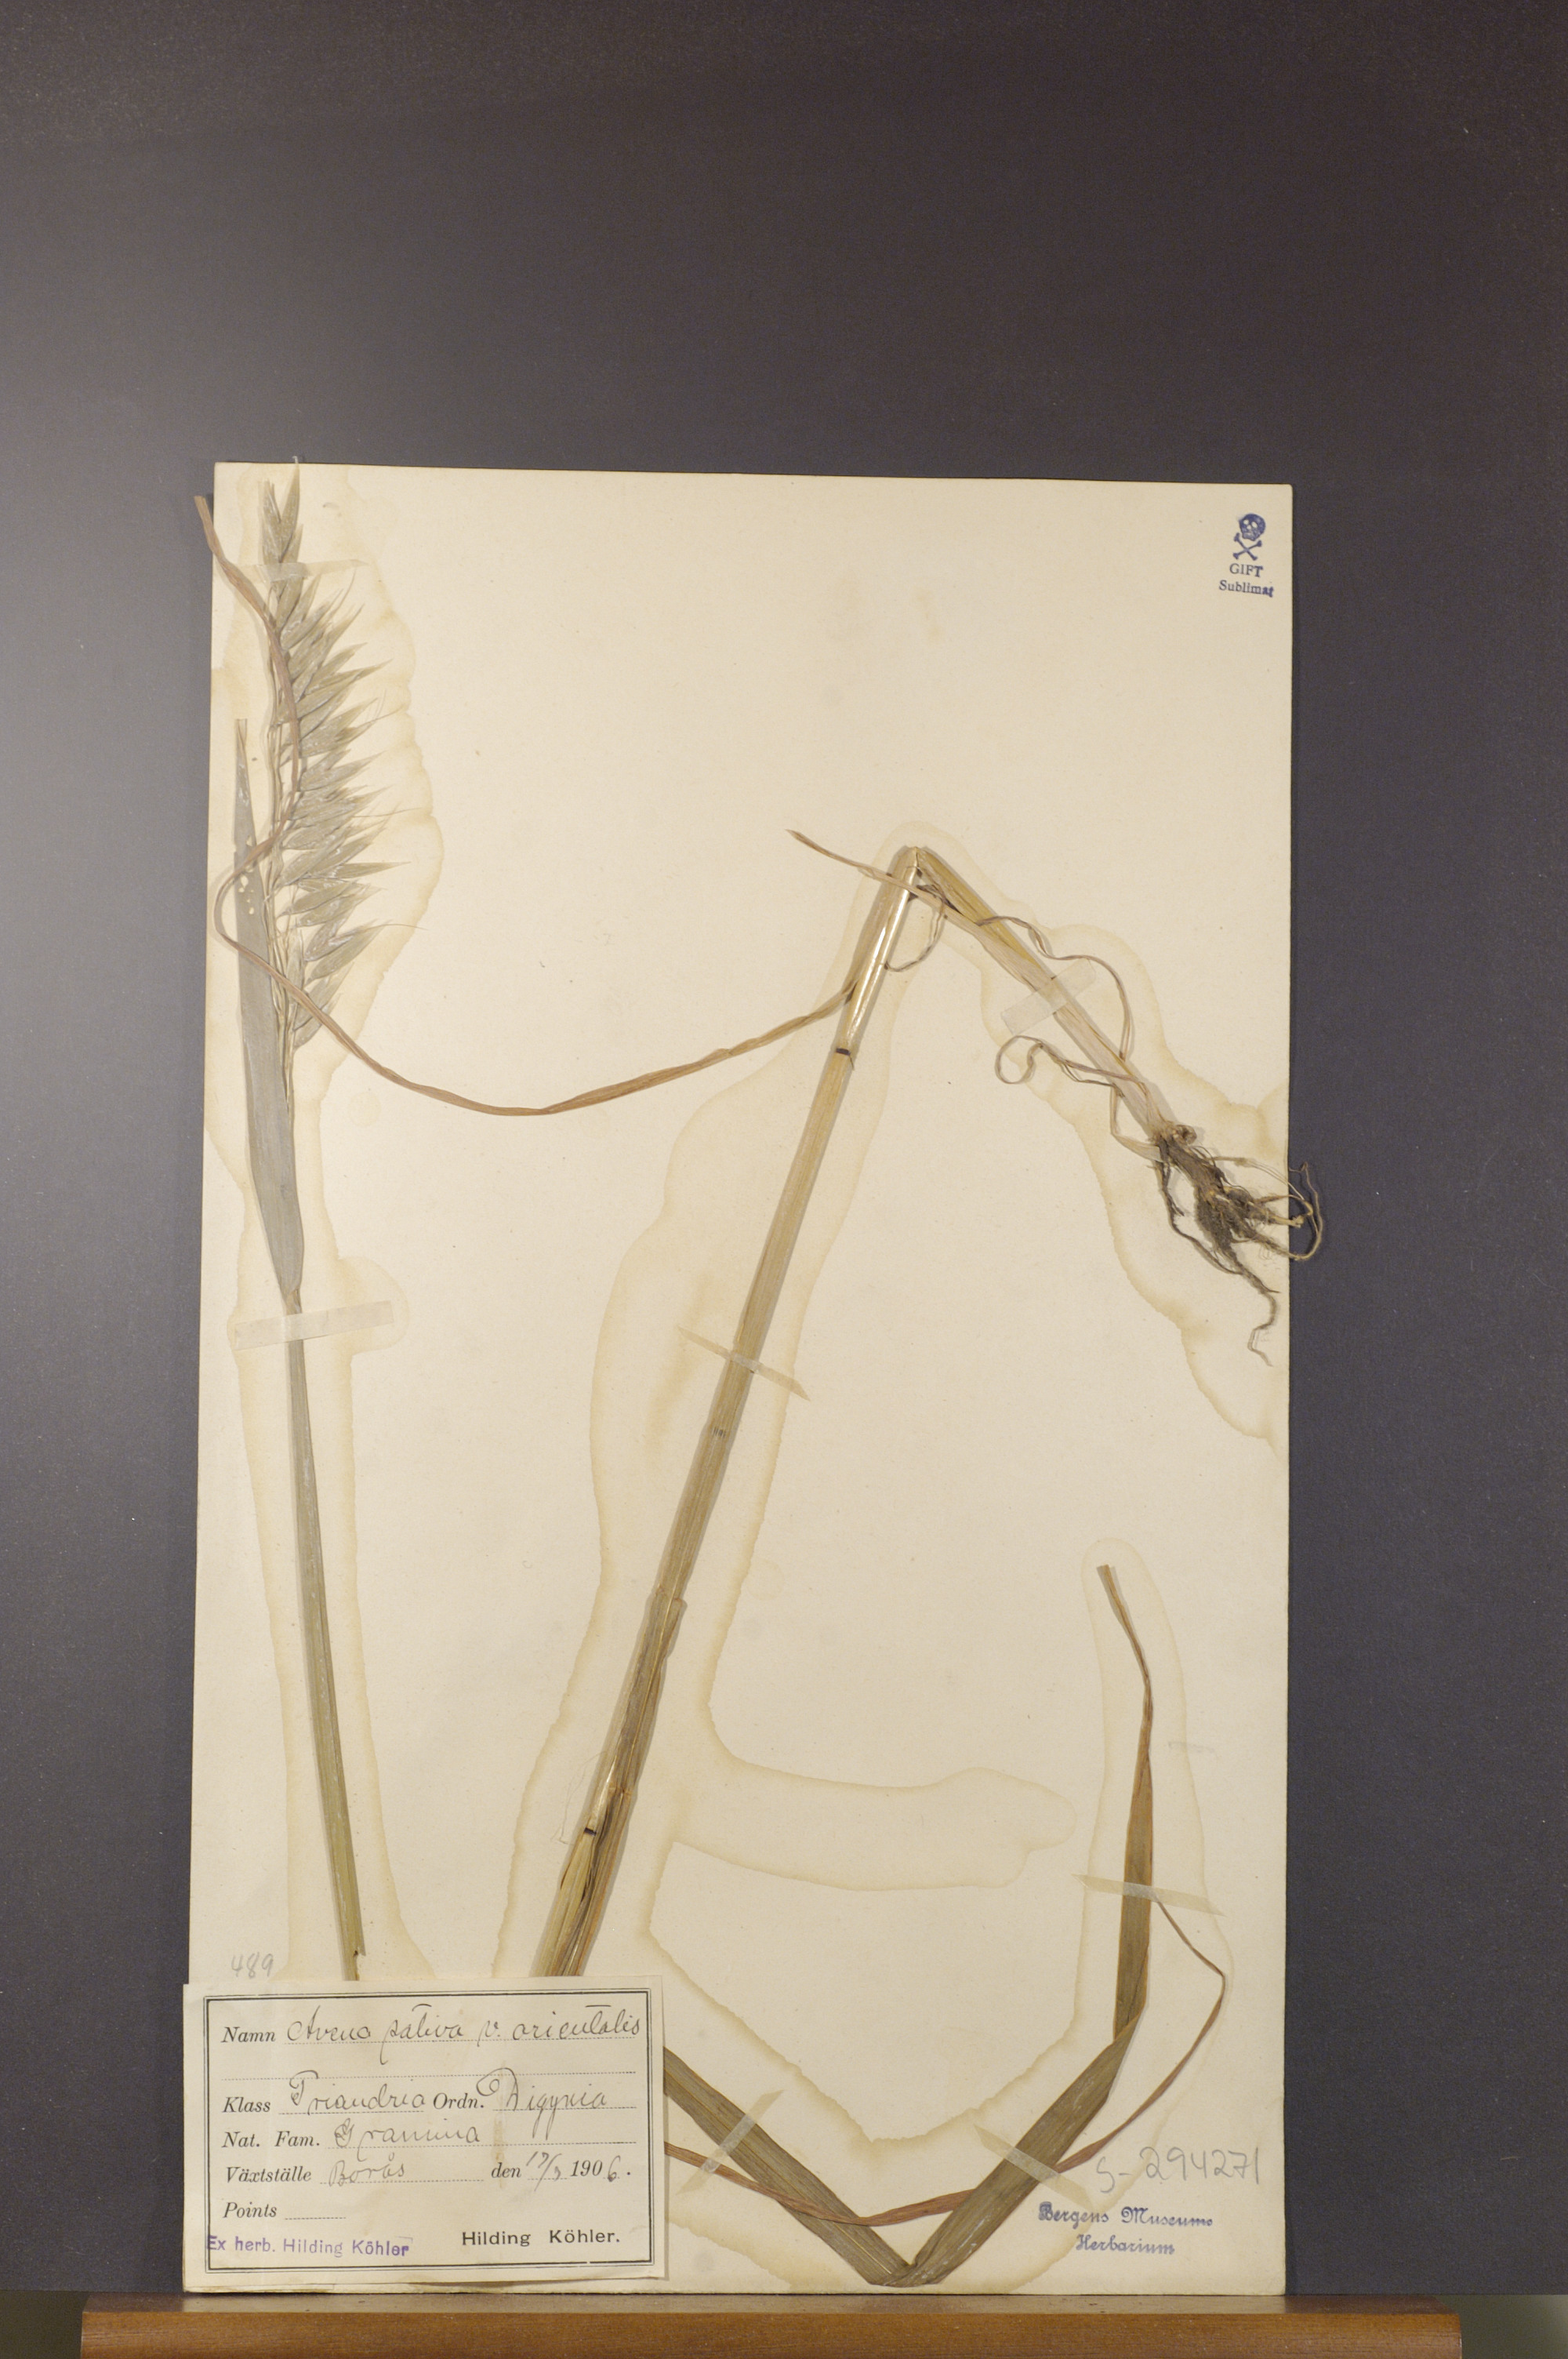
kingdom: Plantae
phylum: Tracheophyta
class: Liliopsida
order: Poales
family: Poaceae
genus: Avena
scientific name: Avena sativa
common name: Oat
